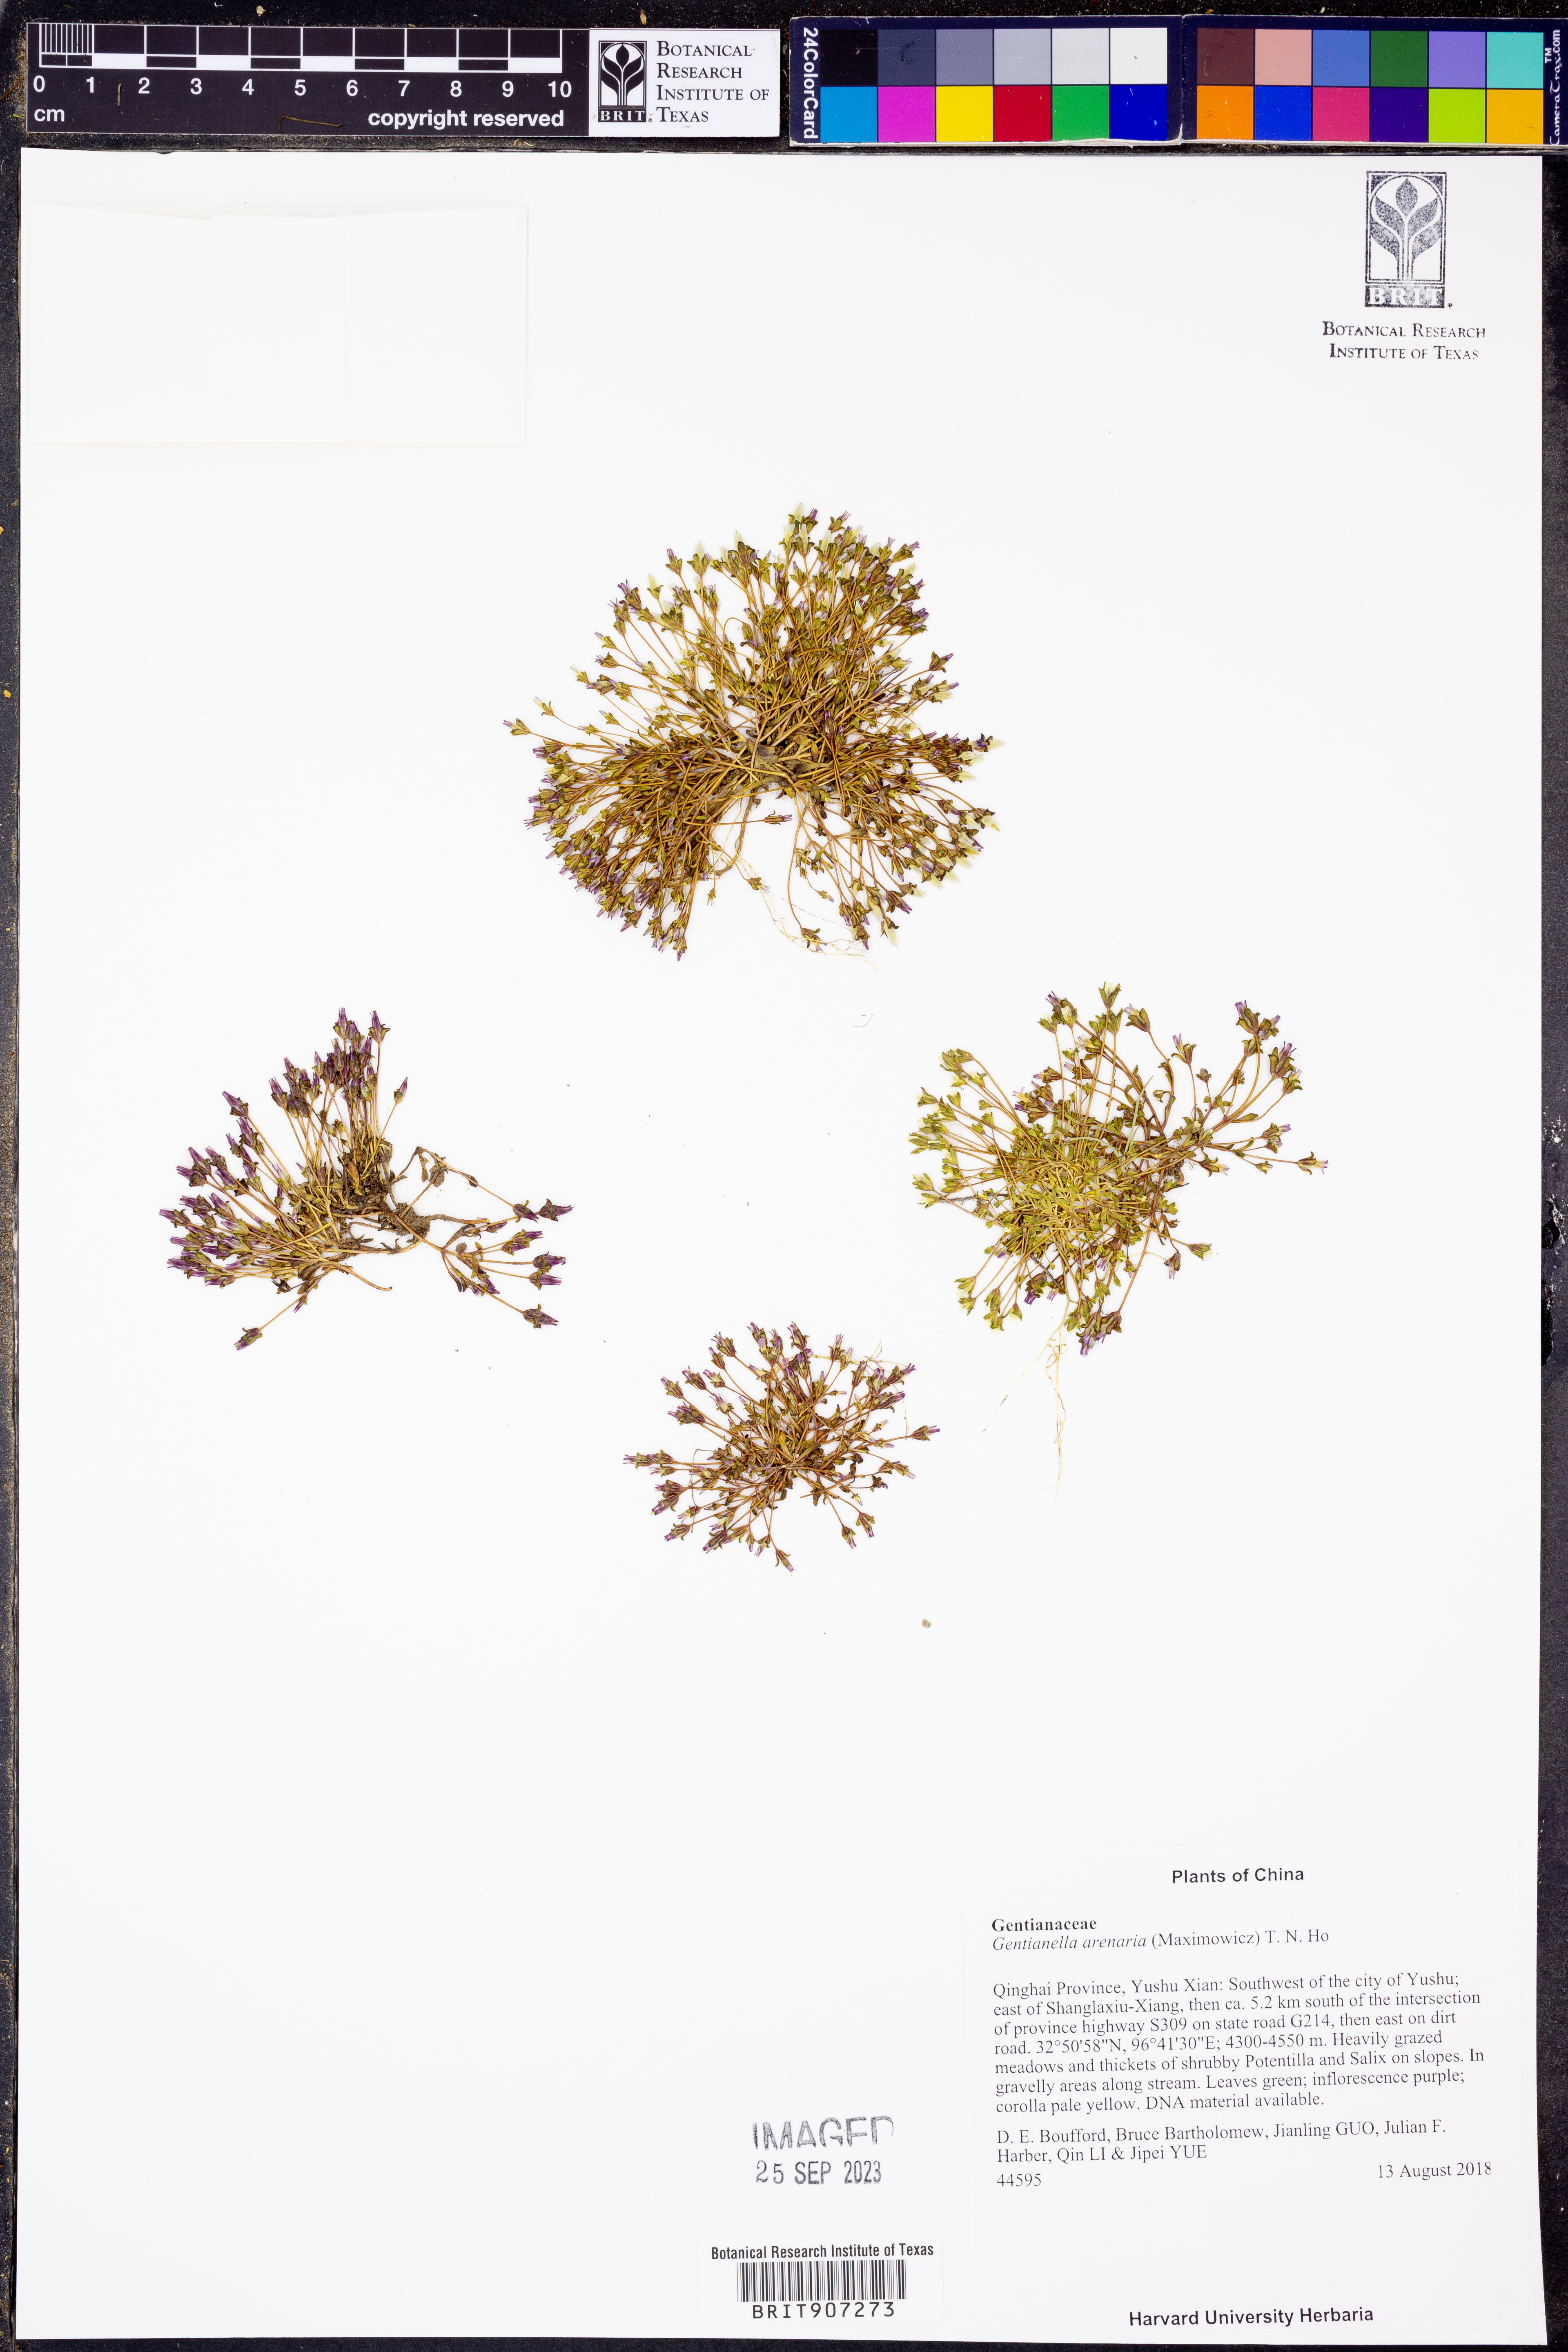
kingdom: Plantae
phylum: Tracheophyta
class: Magnoliopsida
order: Gentianales
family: Gentianaceae
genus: Gentianella
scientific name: Gentianella arenaria
